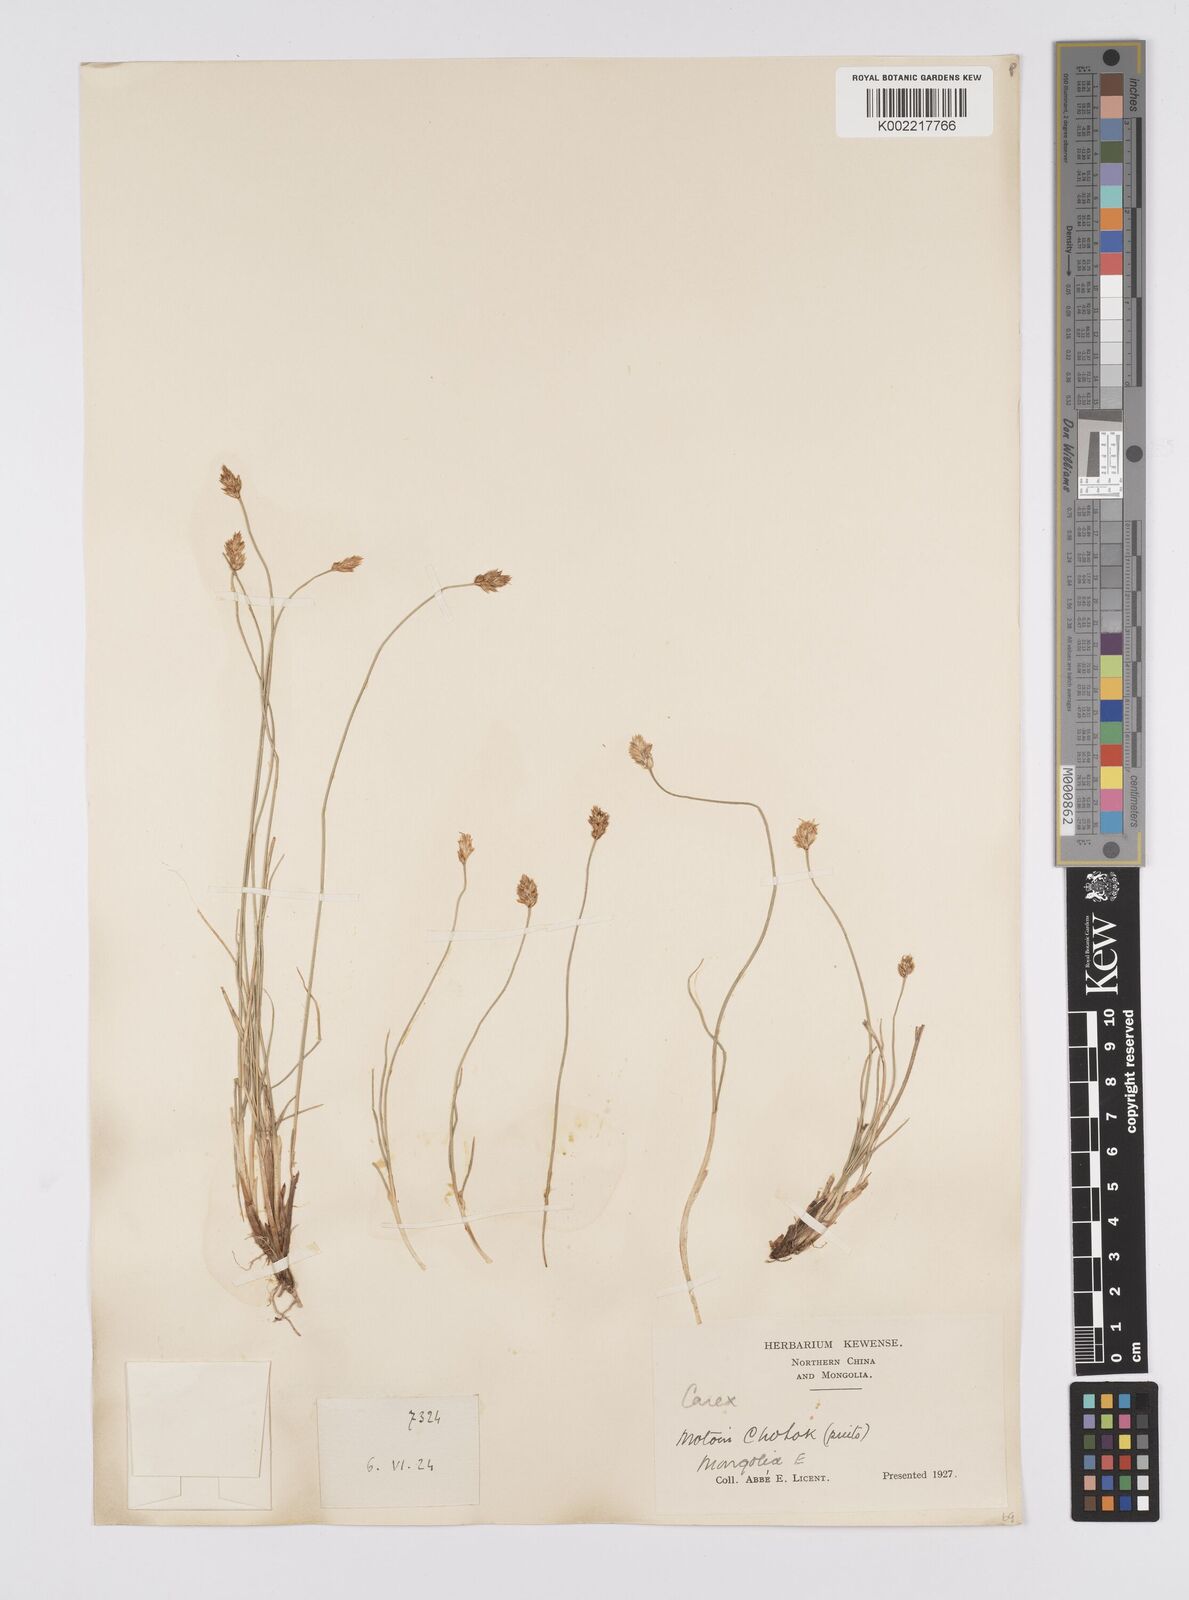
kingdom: Plantae
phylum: Tracheophyta
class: Liliopsida
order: Poales
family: Cyperaceae
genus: Carex
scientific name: Carex stenophylla
